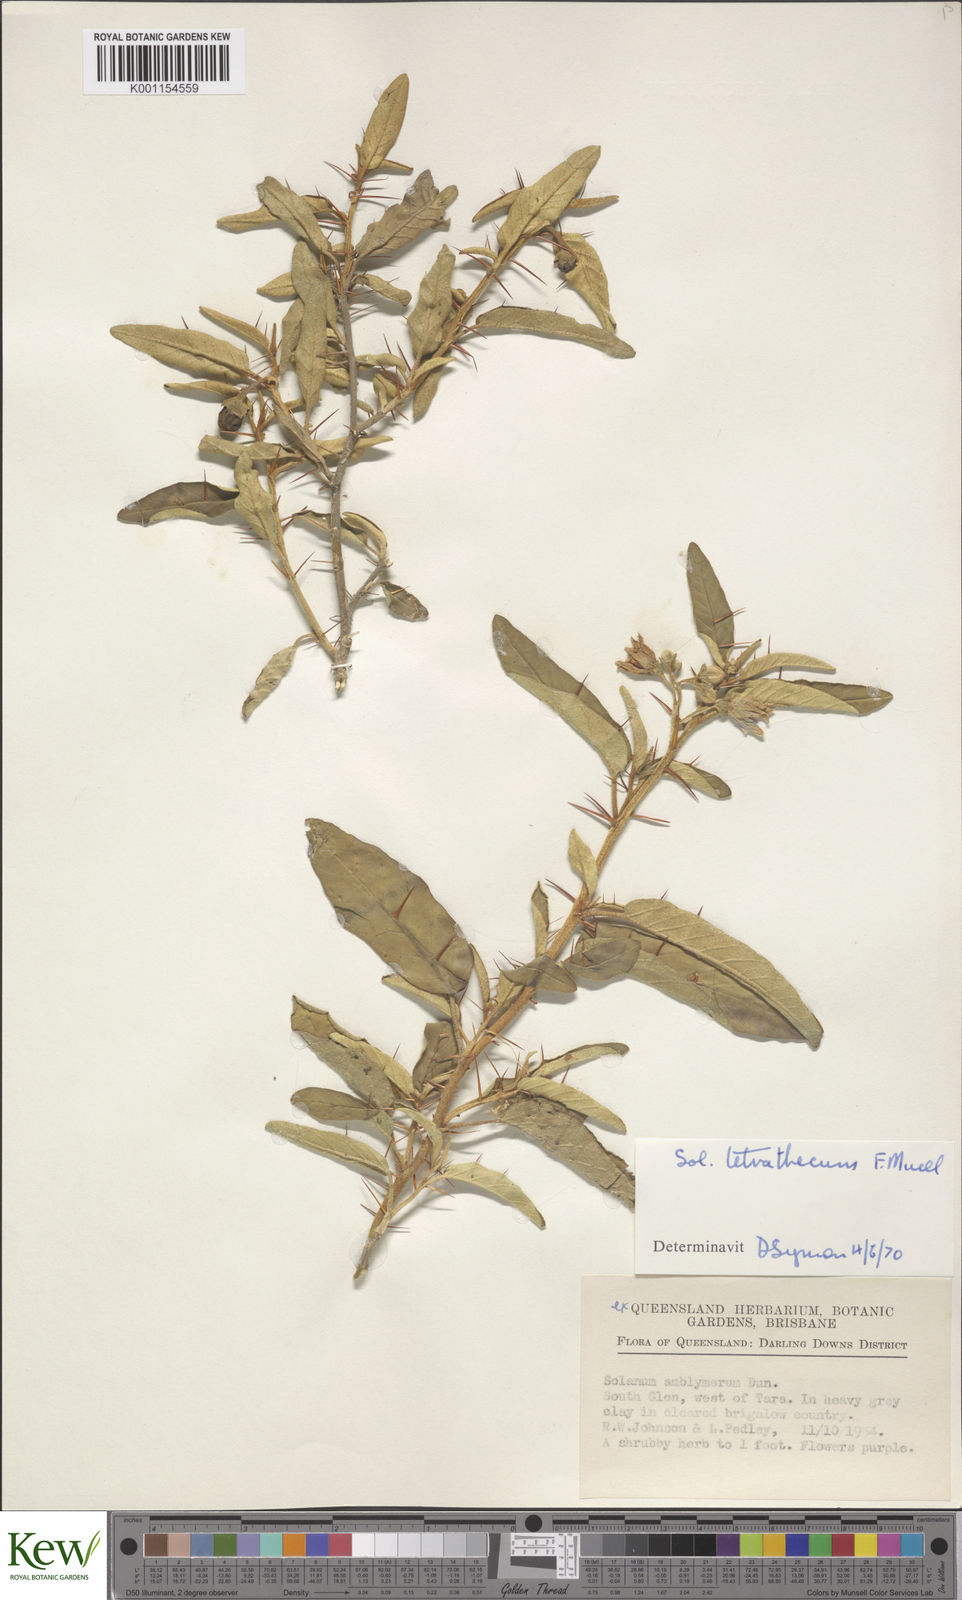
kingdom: Plantae
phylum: Tracheophyta
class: Magnoliopsida
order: Solanales
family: Solanaceae
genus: Solanum
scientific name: Solanum tetrathecum
